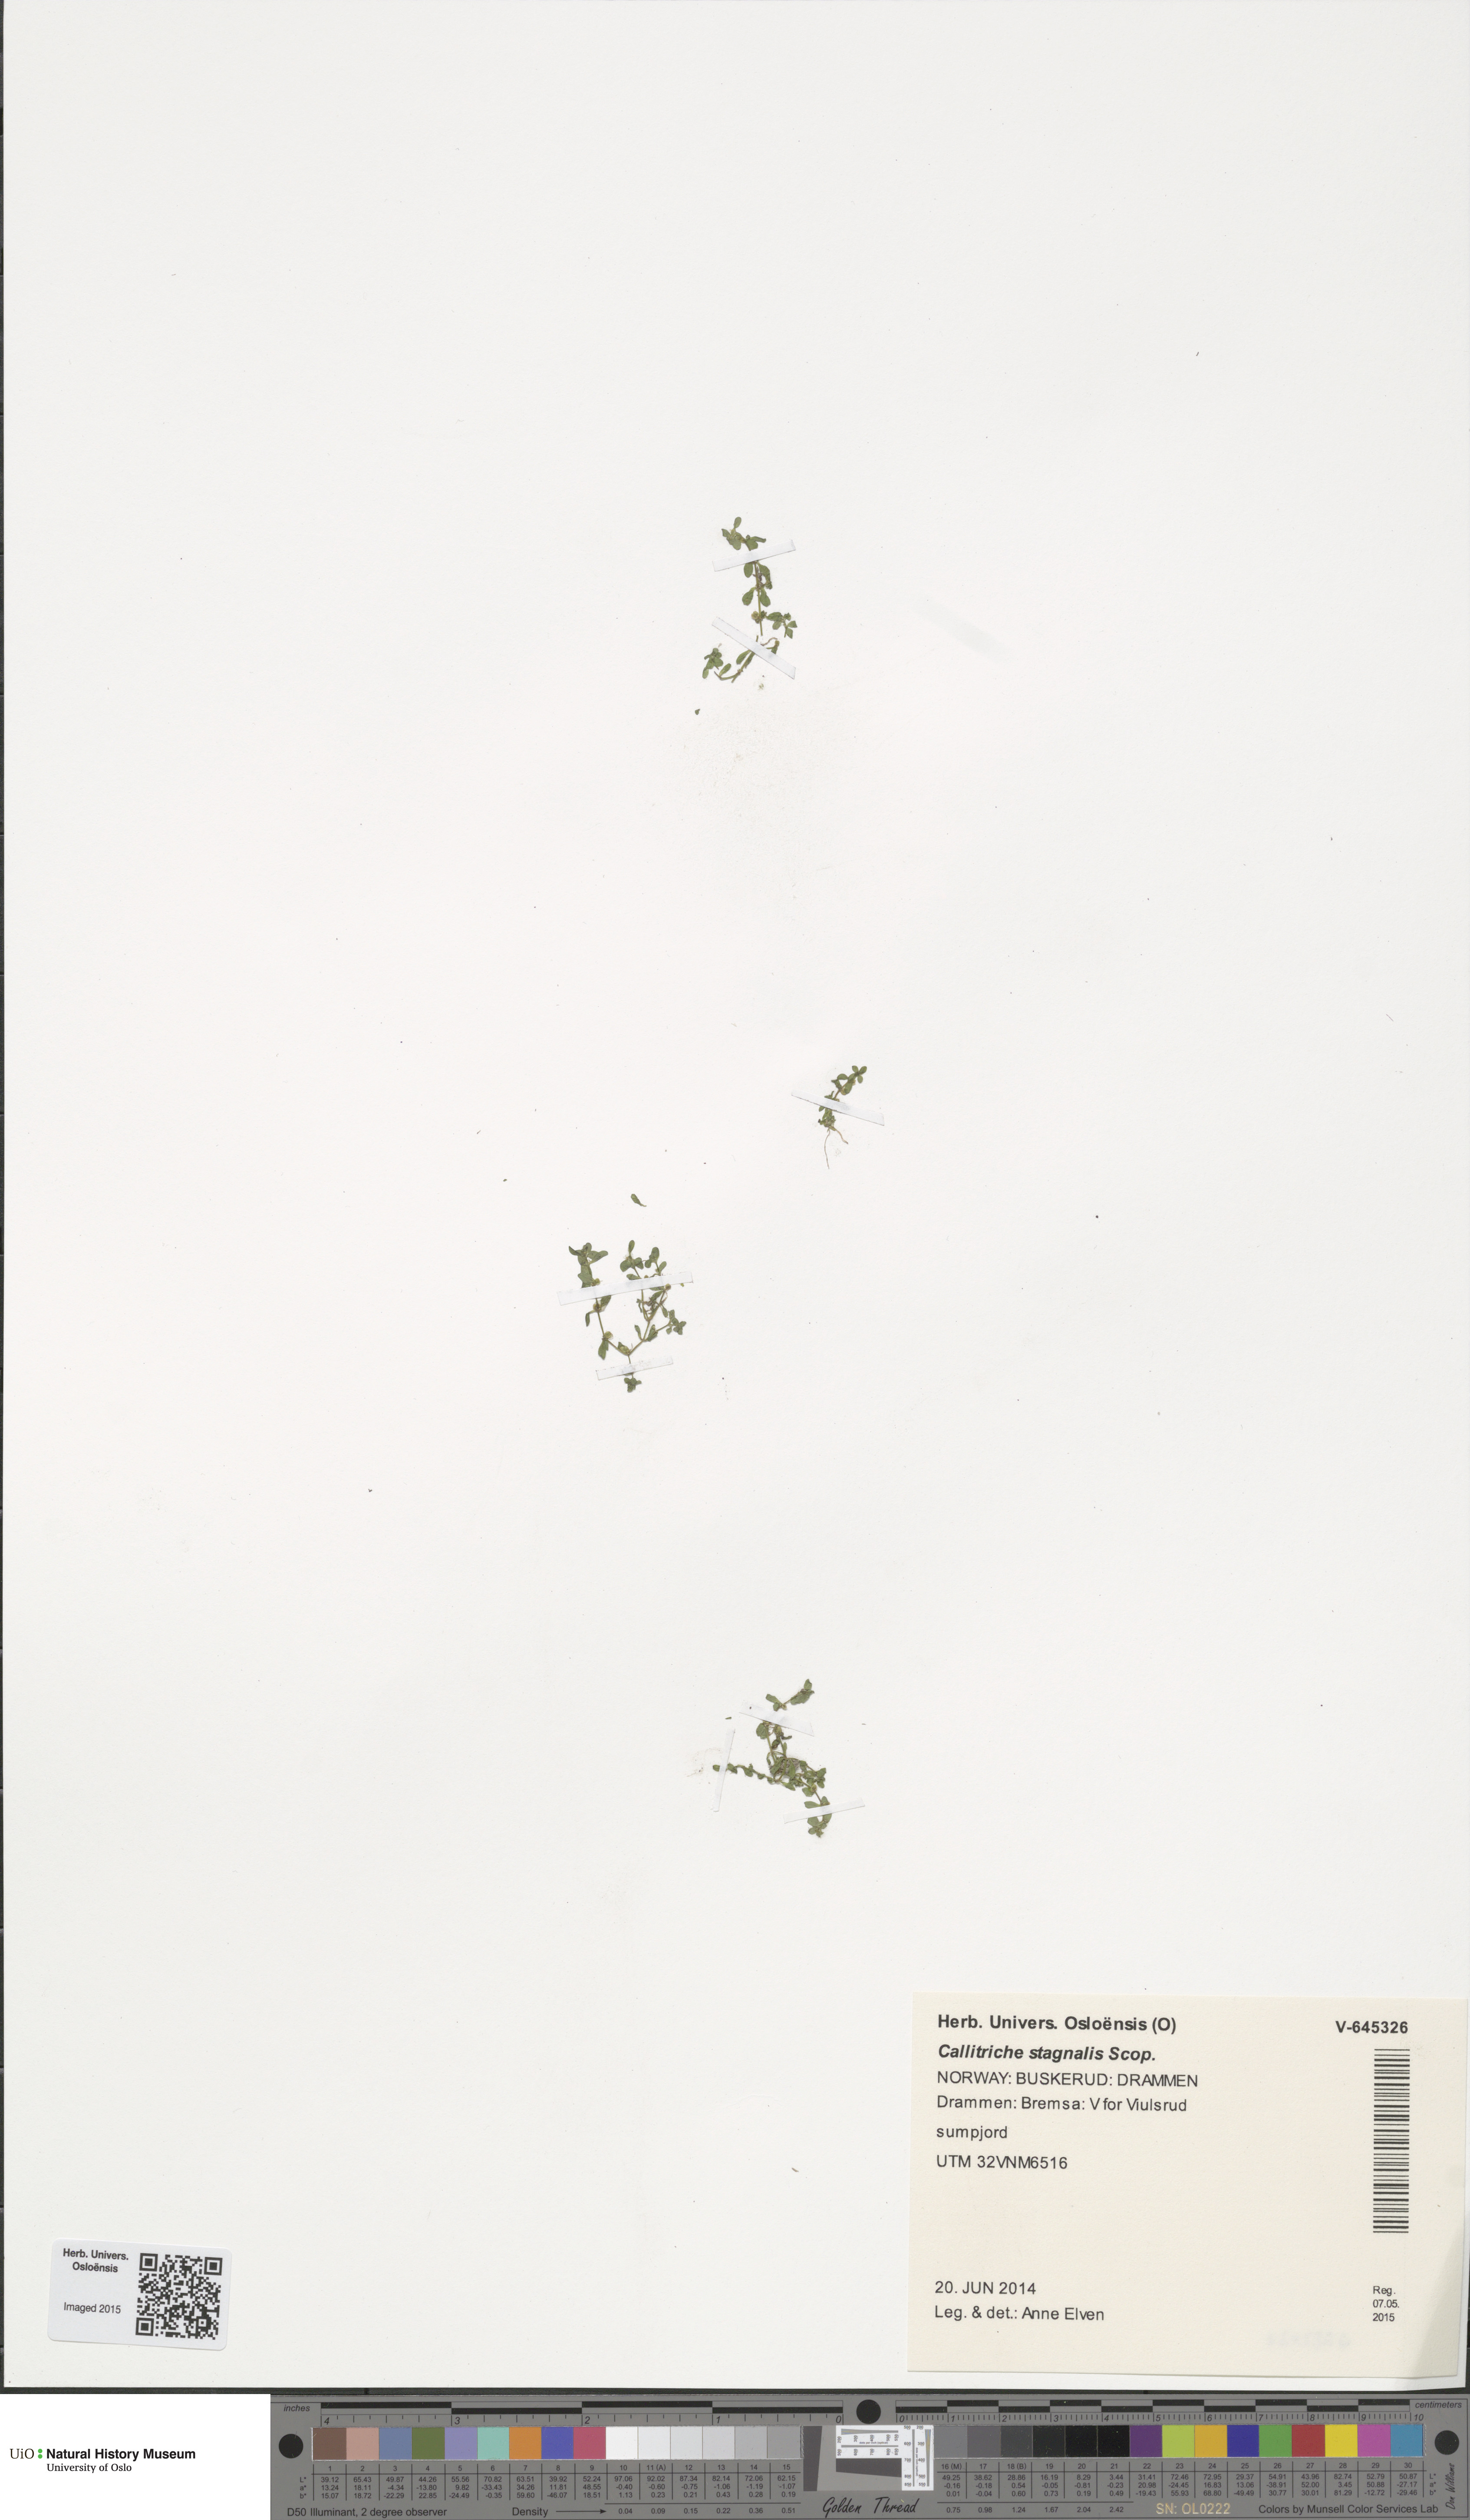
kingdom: Plantae
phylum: Tracheophyta
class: Magnoliopsida
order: Lamiales
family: Plantaginaceae
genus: Callitriche
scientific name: Callitriche stagnalis
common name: Common water-starwort
